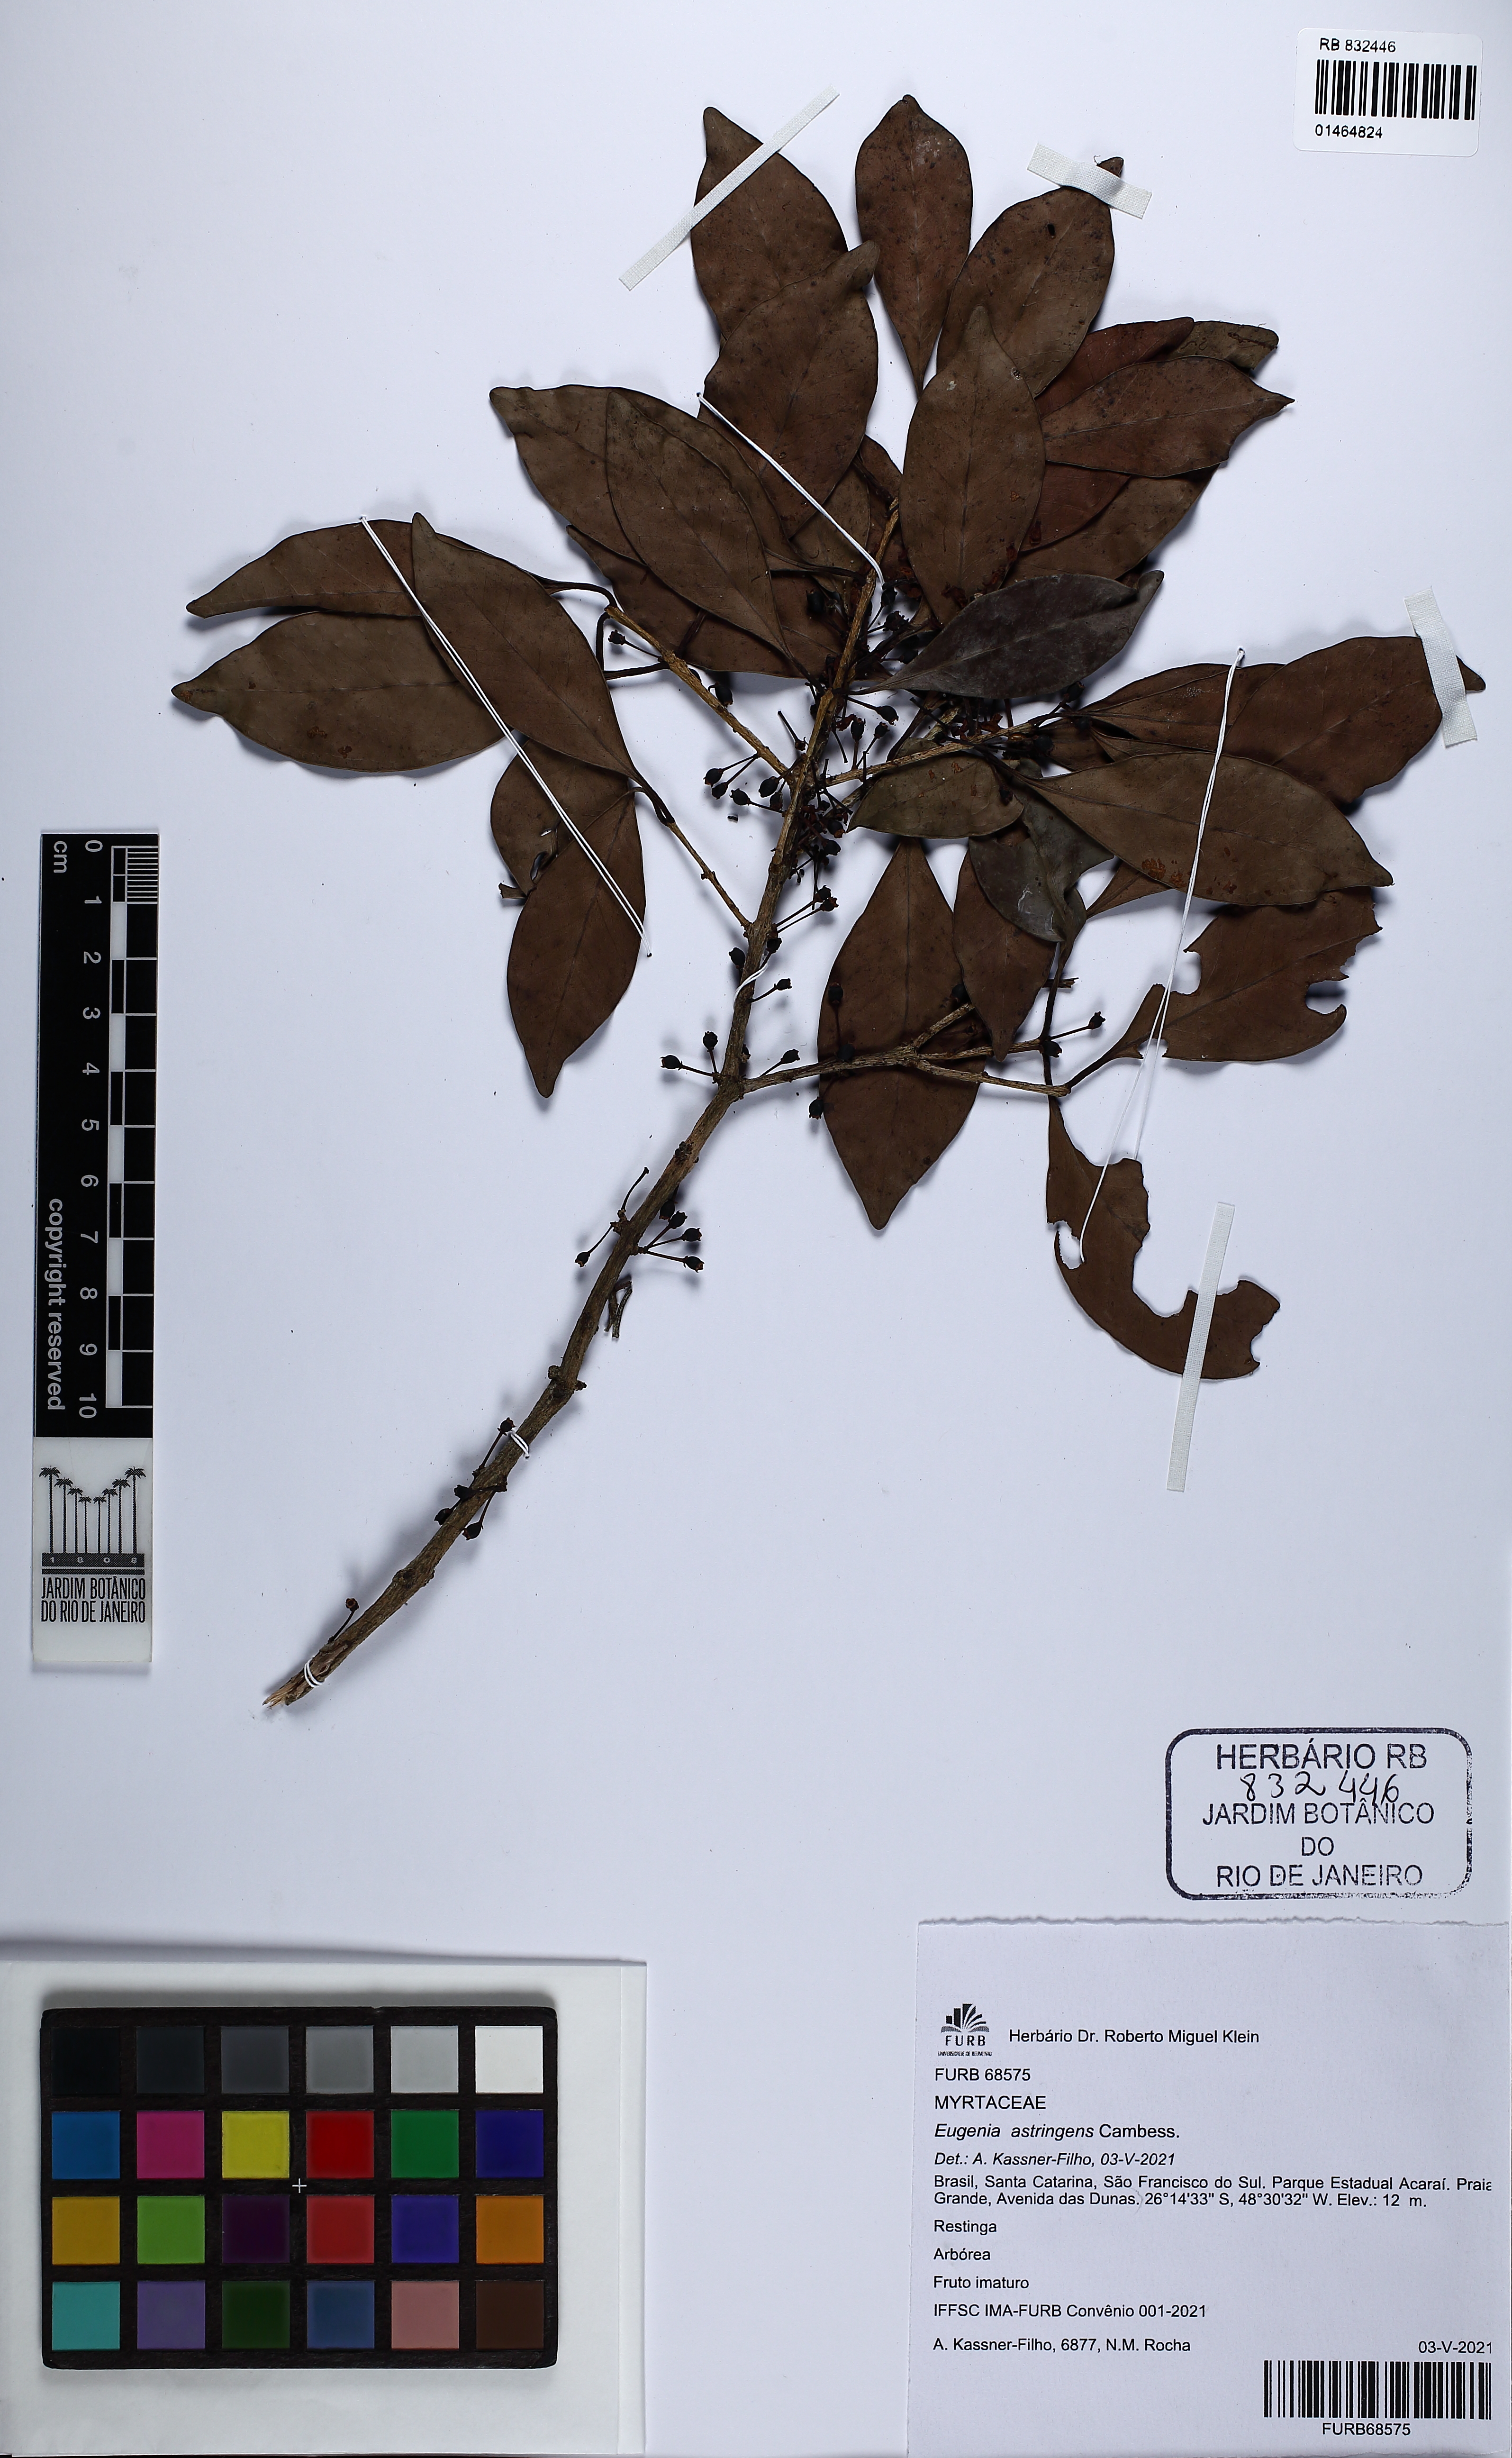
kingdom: Plantae
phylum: Tracheophyta
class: Magnoliopsida
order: Myrtales
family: Myrtaceae
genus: Eugenia
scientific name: Eugenia astringens
